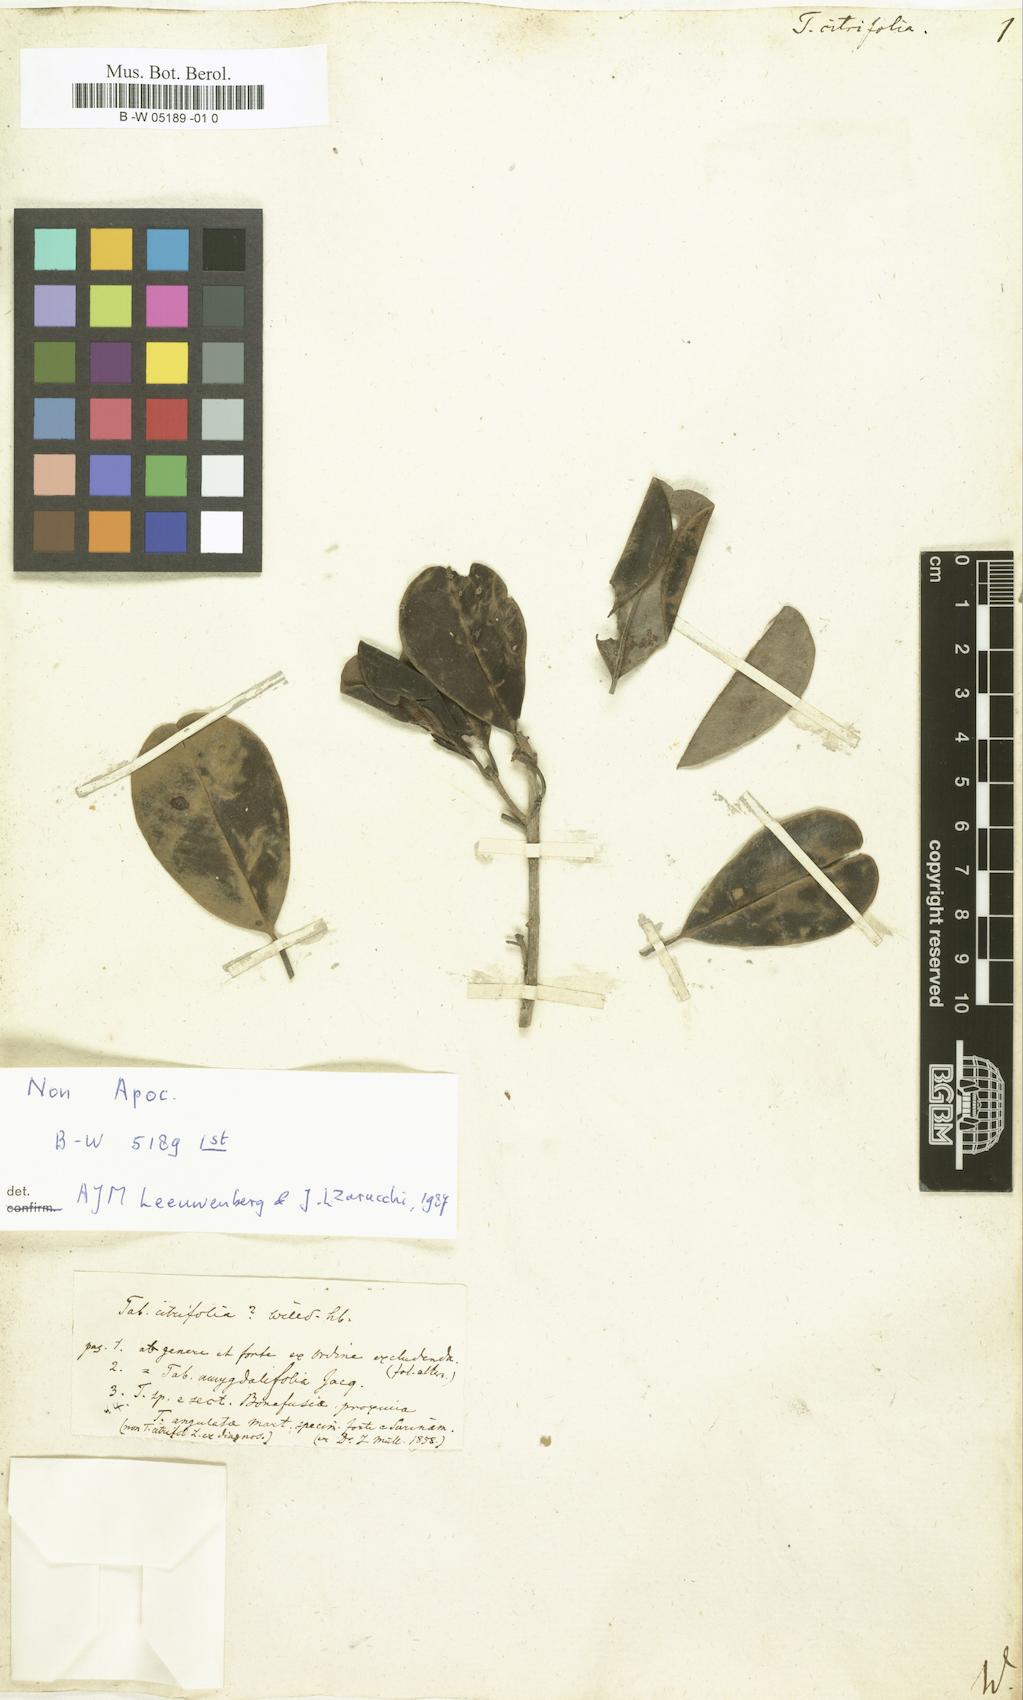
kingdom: Plantae
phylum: Tracheophyta
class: Magnoliopsida
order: Gentianales
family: Apocynaceae
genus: Tabernaemontana
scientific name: Tabernaemontana citrifolia
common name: Milky tree
